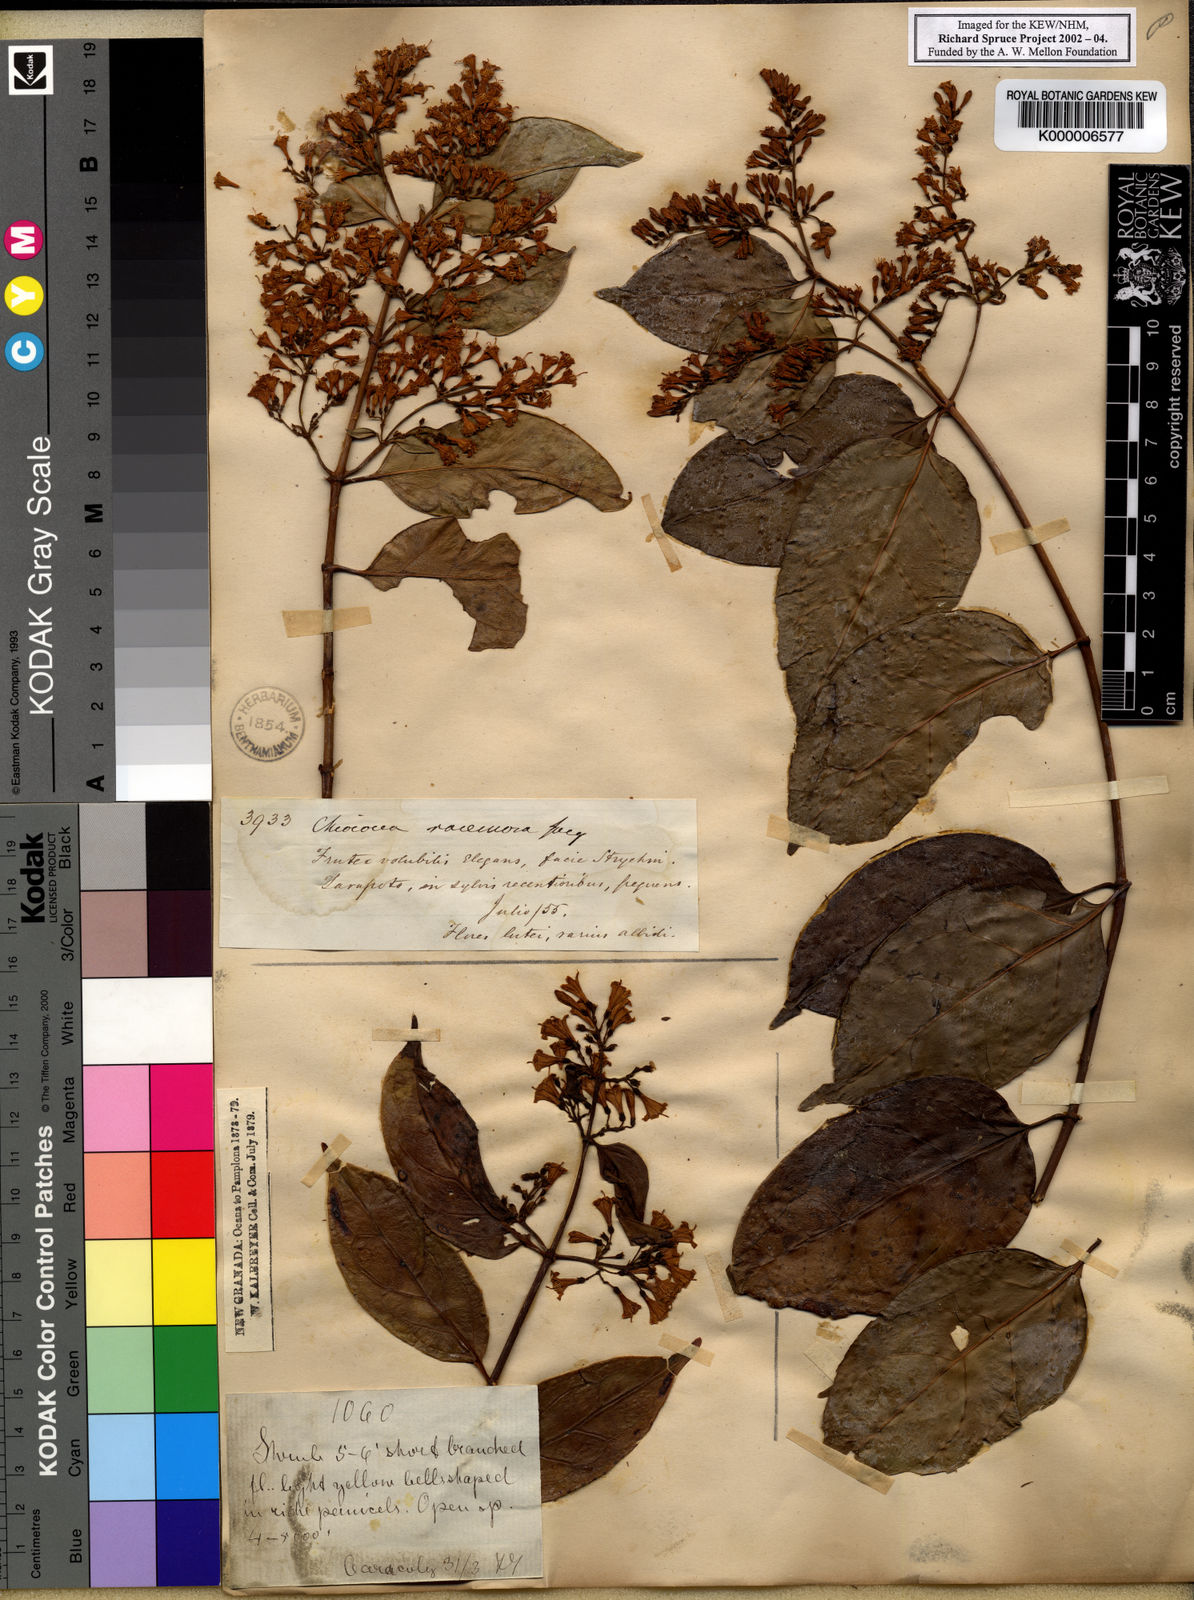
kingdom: Plantae
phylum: Tracheophyta
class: Magnoliopsida
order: Gentianales
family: Rubiaceae
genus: Chiococca
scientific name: Chiococca alba
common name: Snowberry
